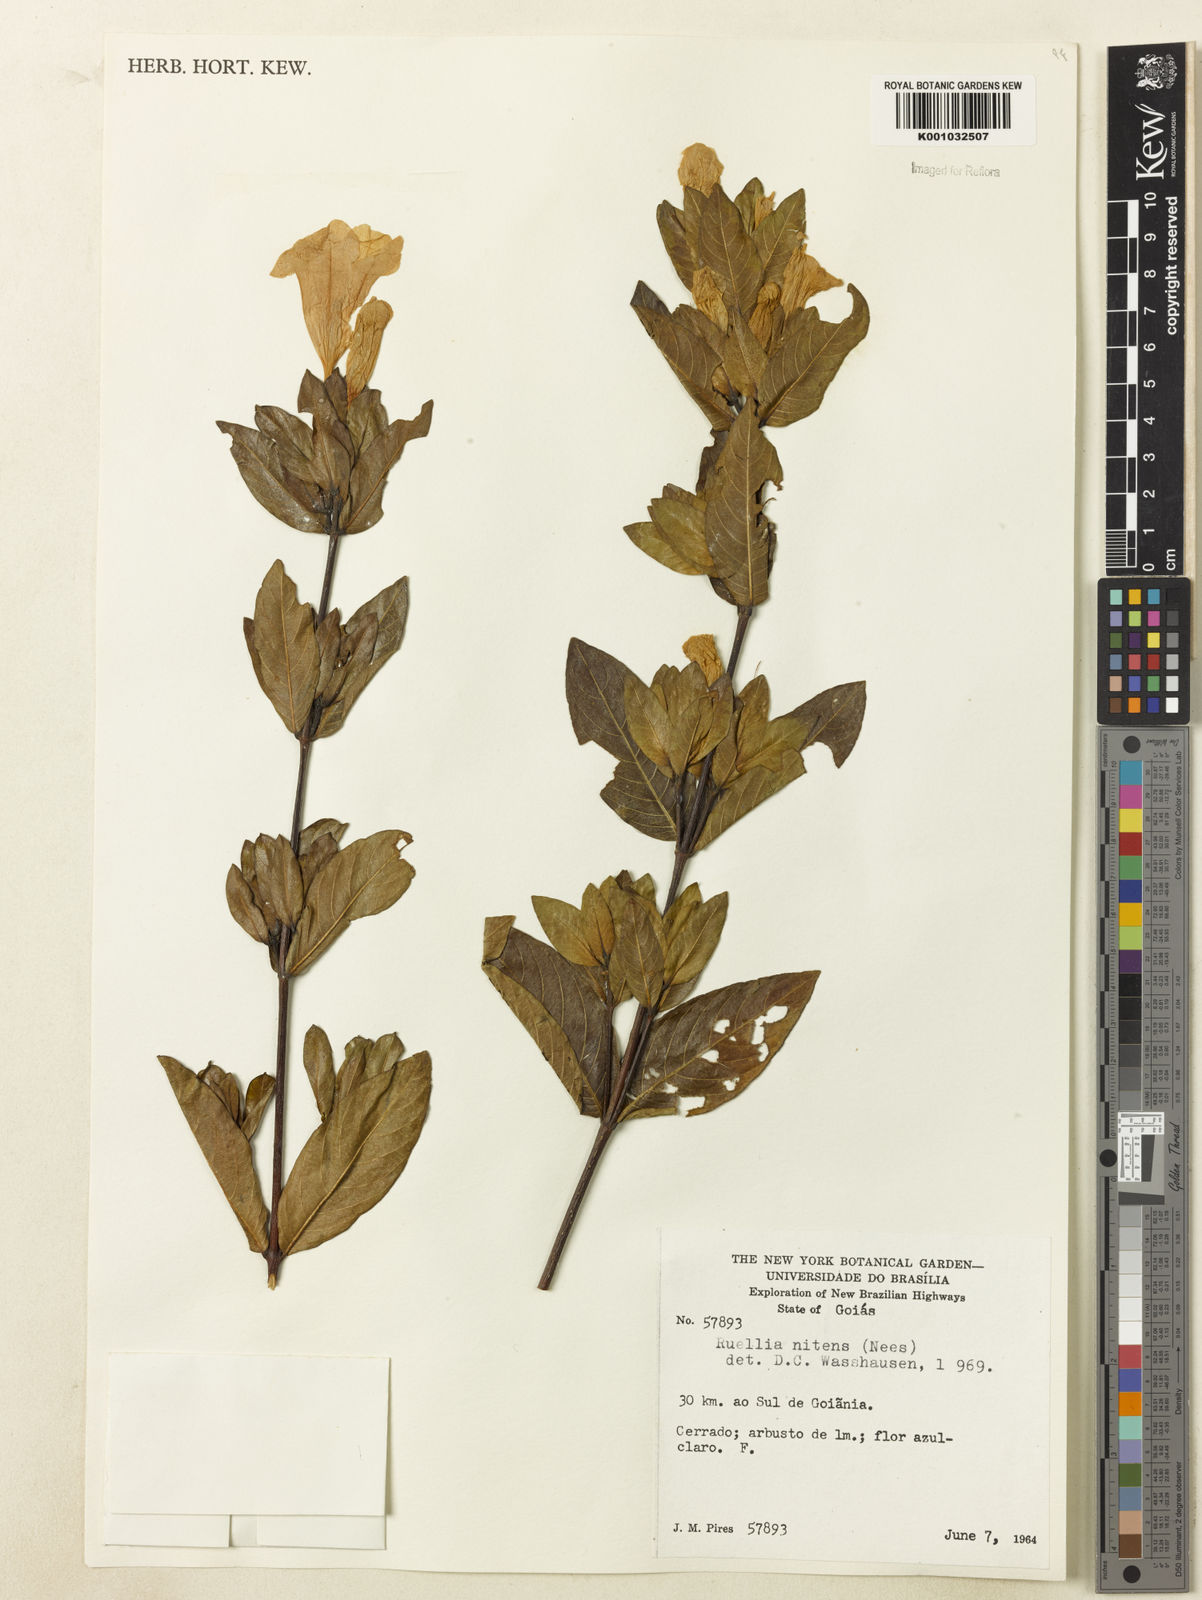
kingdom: Plantae
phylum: Tracheophyta
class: Magnoliopsida
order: Lamiales
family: Acanthaceae
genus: Ruellia
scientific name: Ruellia nitens
